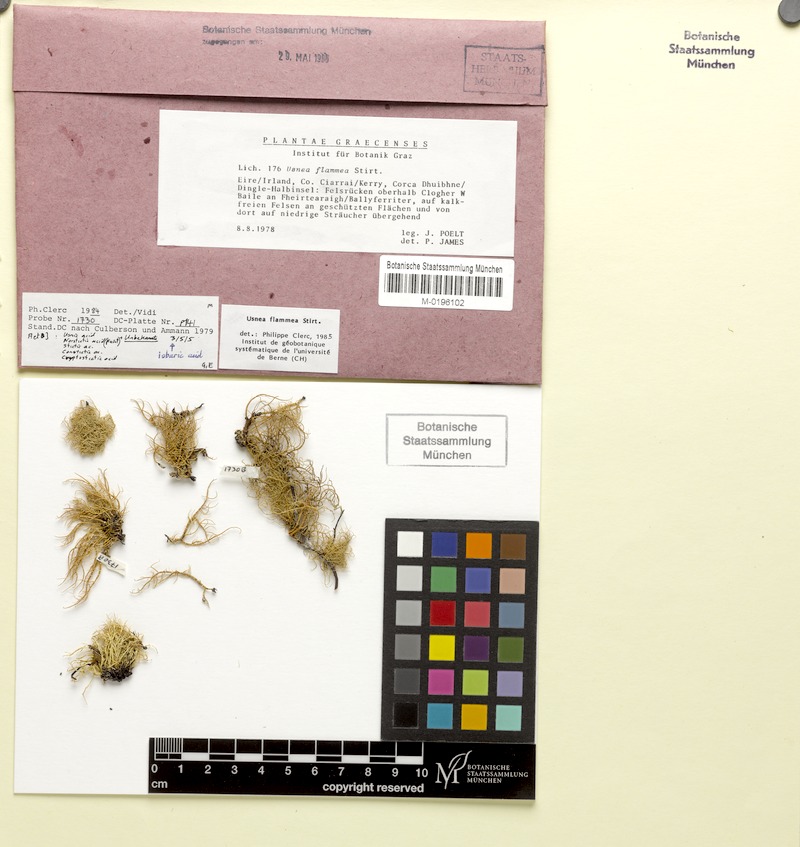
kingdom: Fungi
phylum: Ascomycota
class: Lecanoromycetes
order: Lecanorales
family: Parmeliaceae
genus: Usnea
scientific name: Usnea flammea
